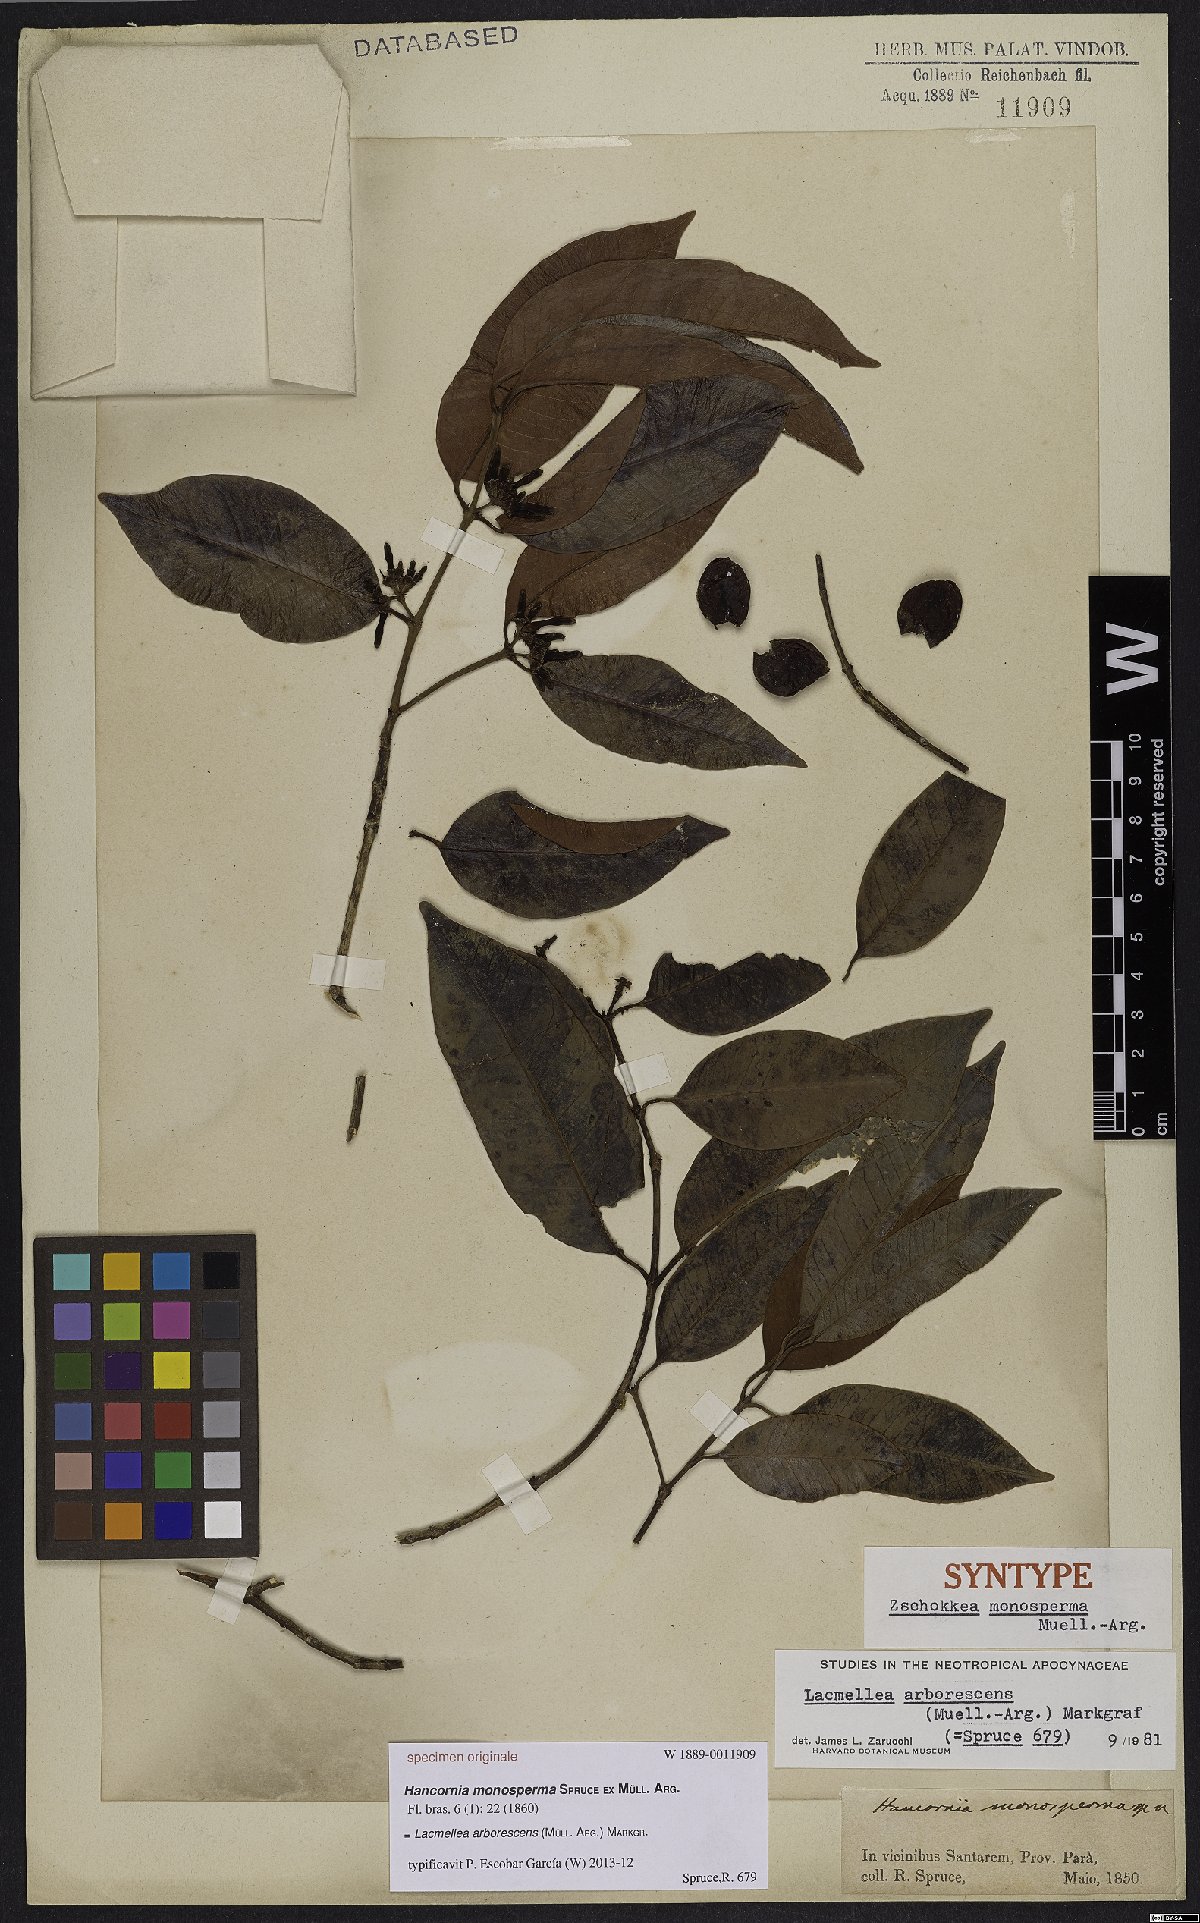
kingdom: Plantae
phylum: Tracheophyta
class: Magnoliopsida
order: Gentianales
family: Apocynaceae
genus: Lacmellea
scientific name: Lacmellea arborescens
